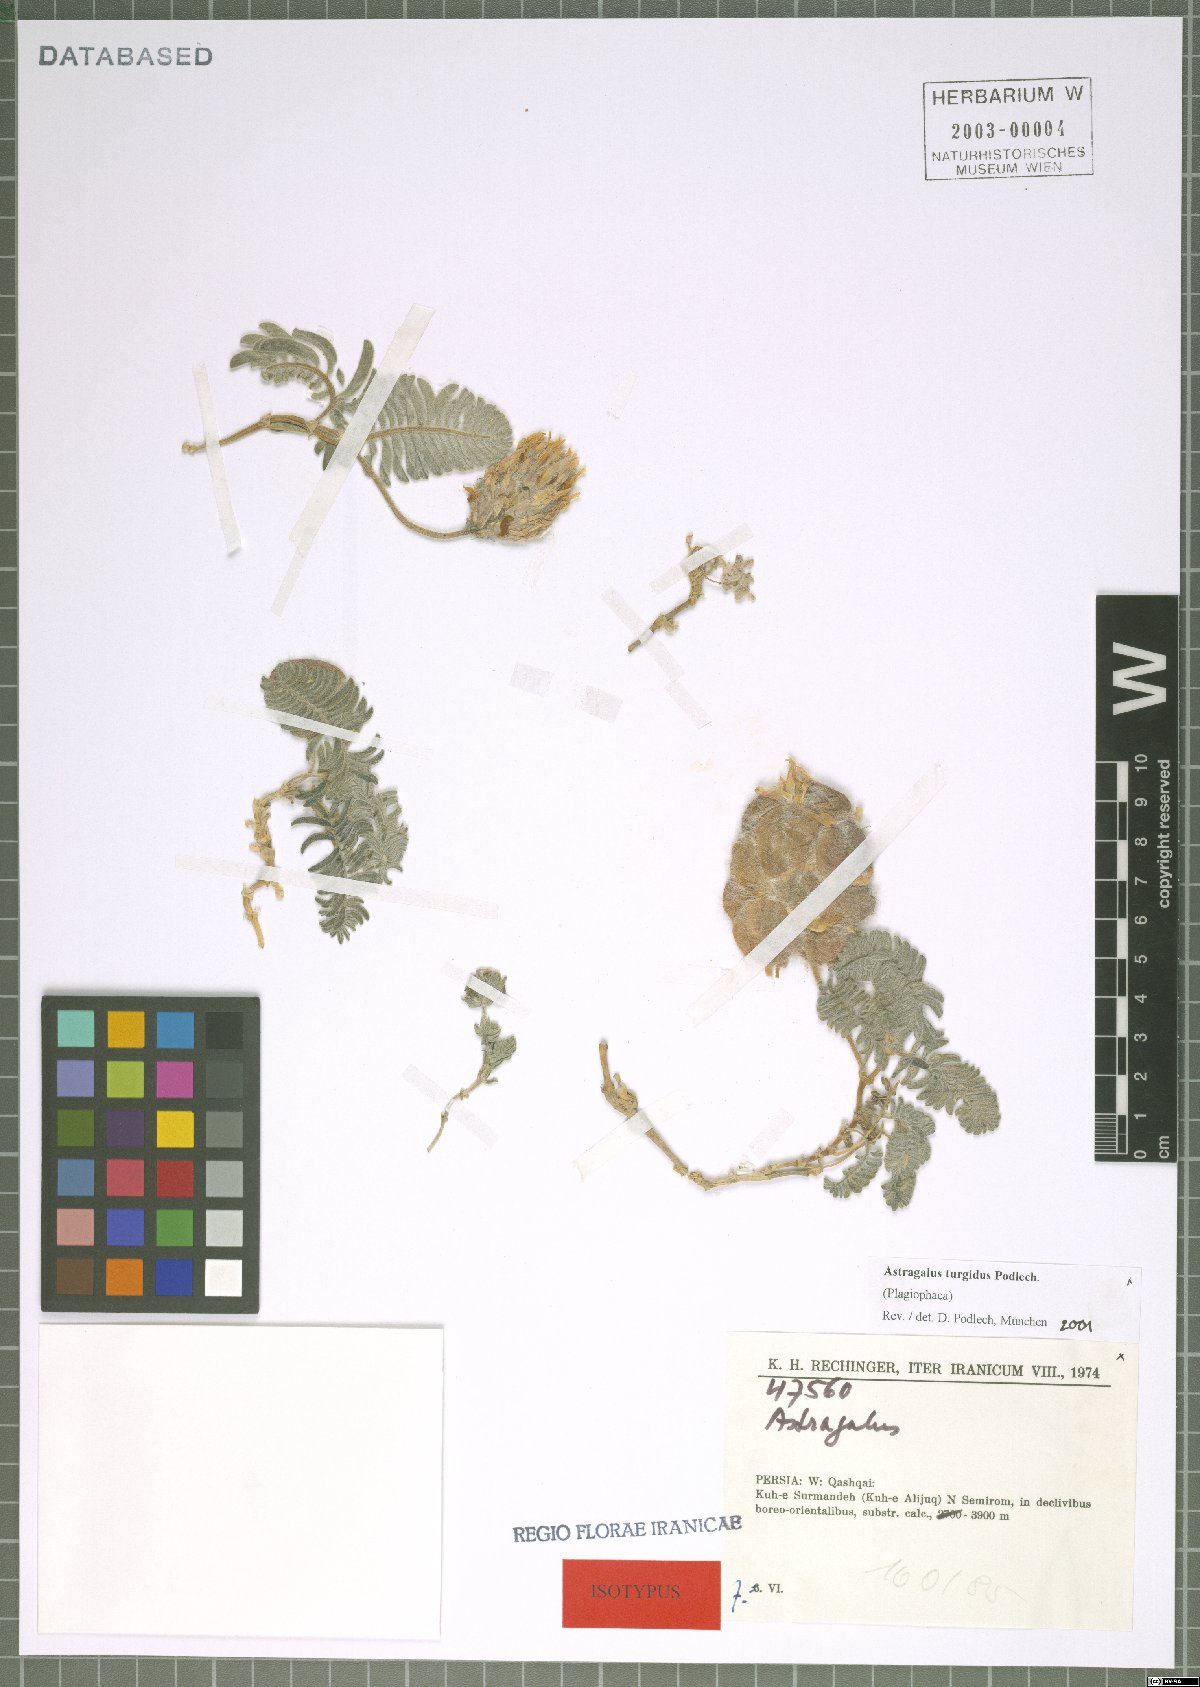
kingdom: Plantae
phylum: Tracheophyta
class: Magnoliopsida
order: Fabales
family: Fabaceae
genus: Astragalus
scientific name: Astragalus inexpectatus
